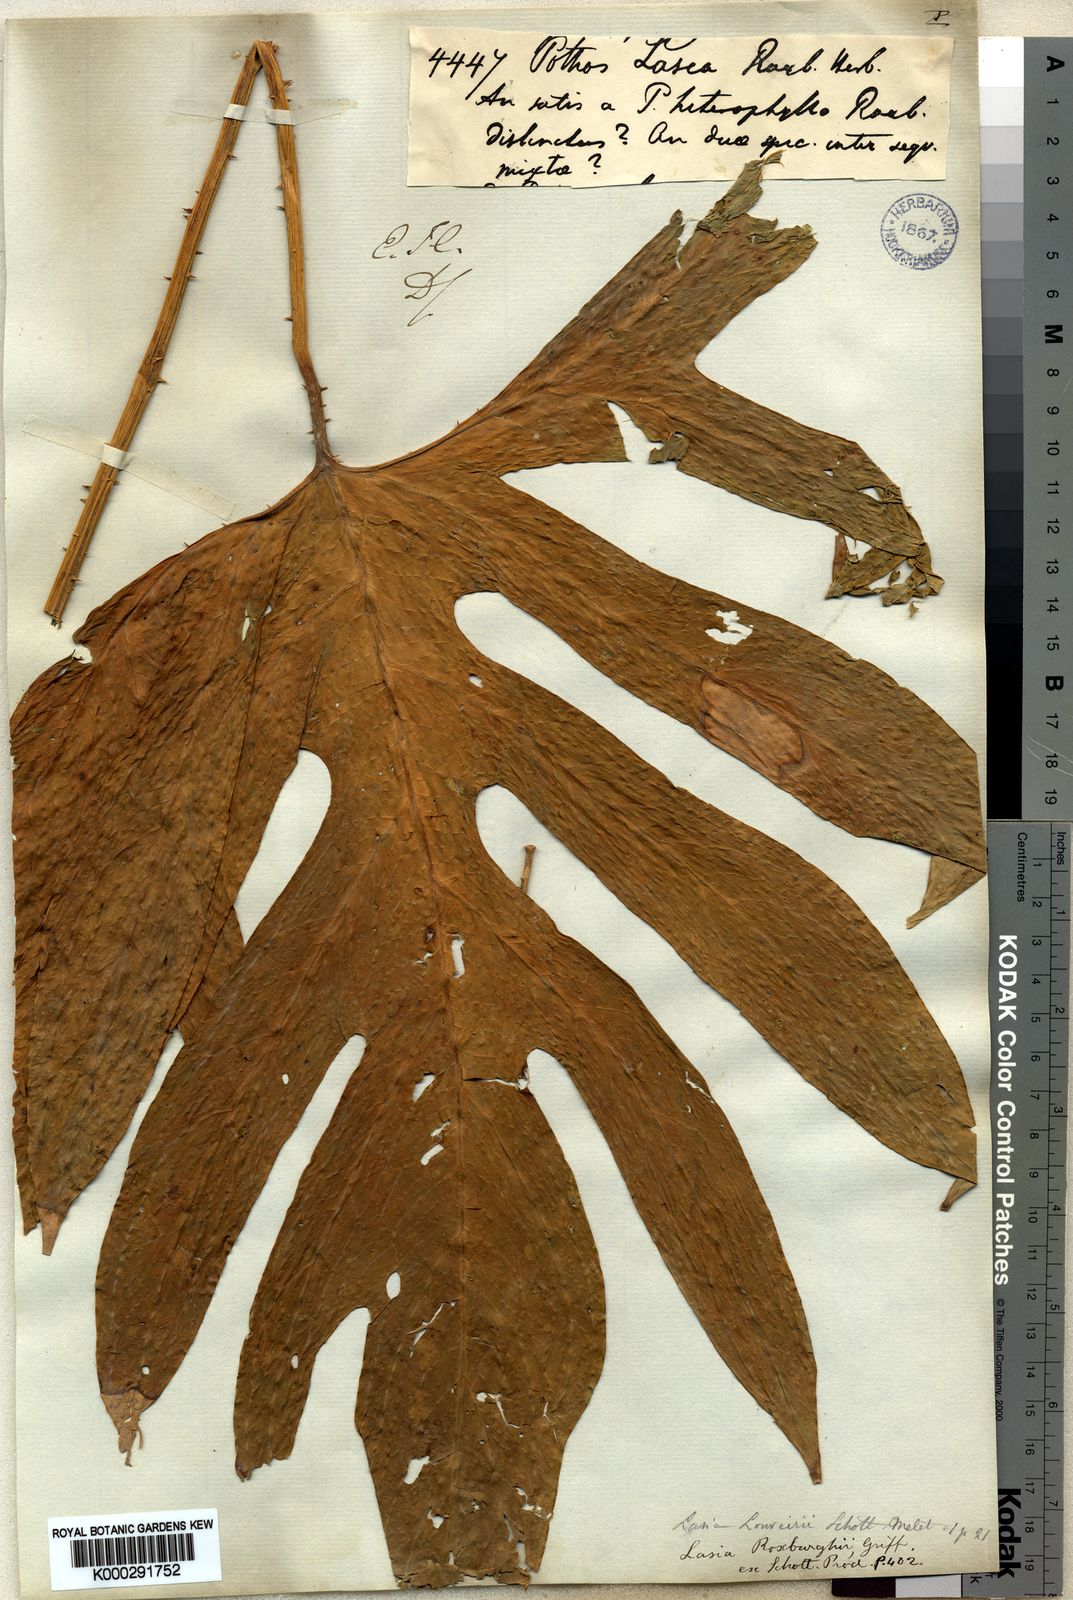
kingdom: Plantae
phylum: Tracheophyta
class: Liliopsida
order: Alismatales
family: Araceae
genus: Lasia
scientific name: Lasia spinosa
